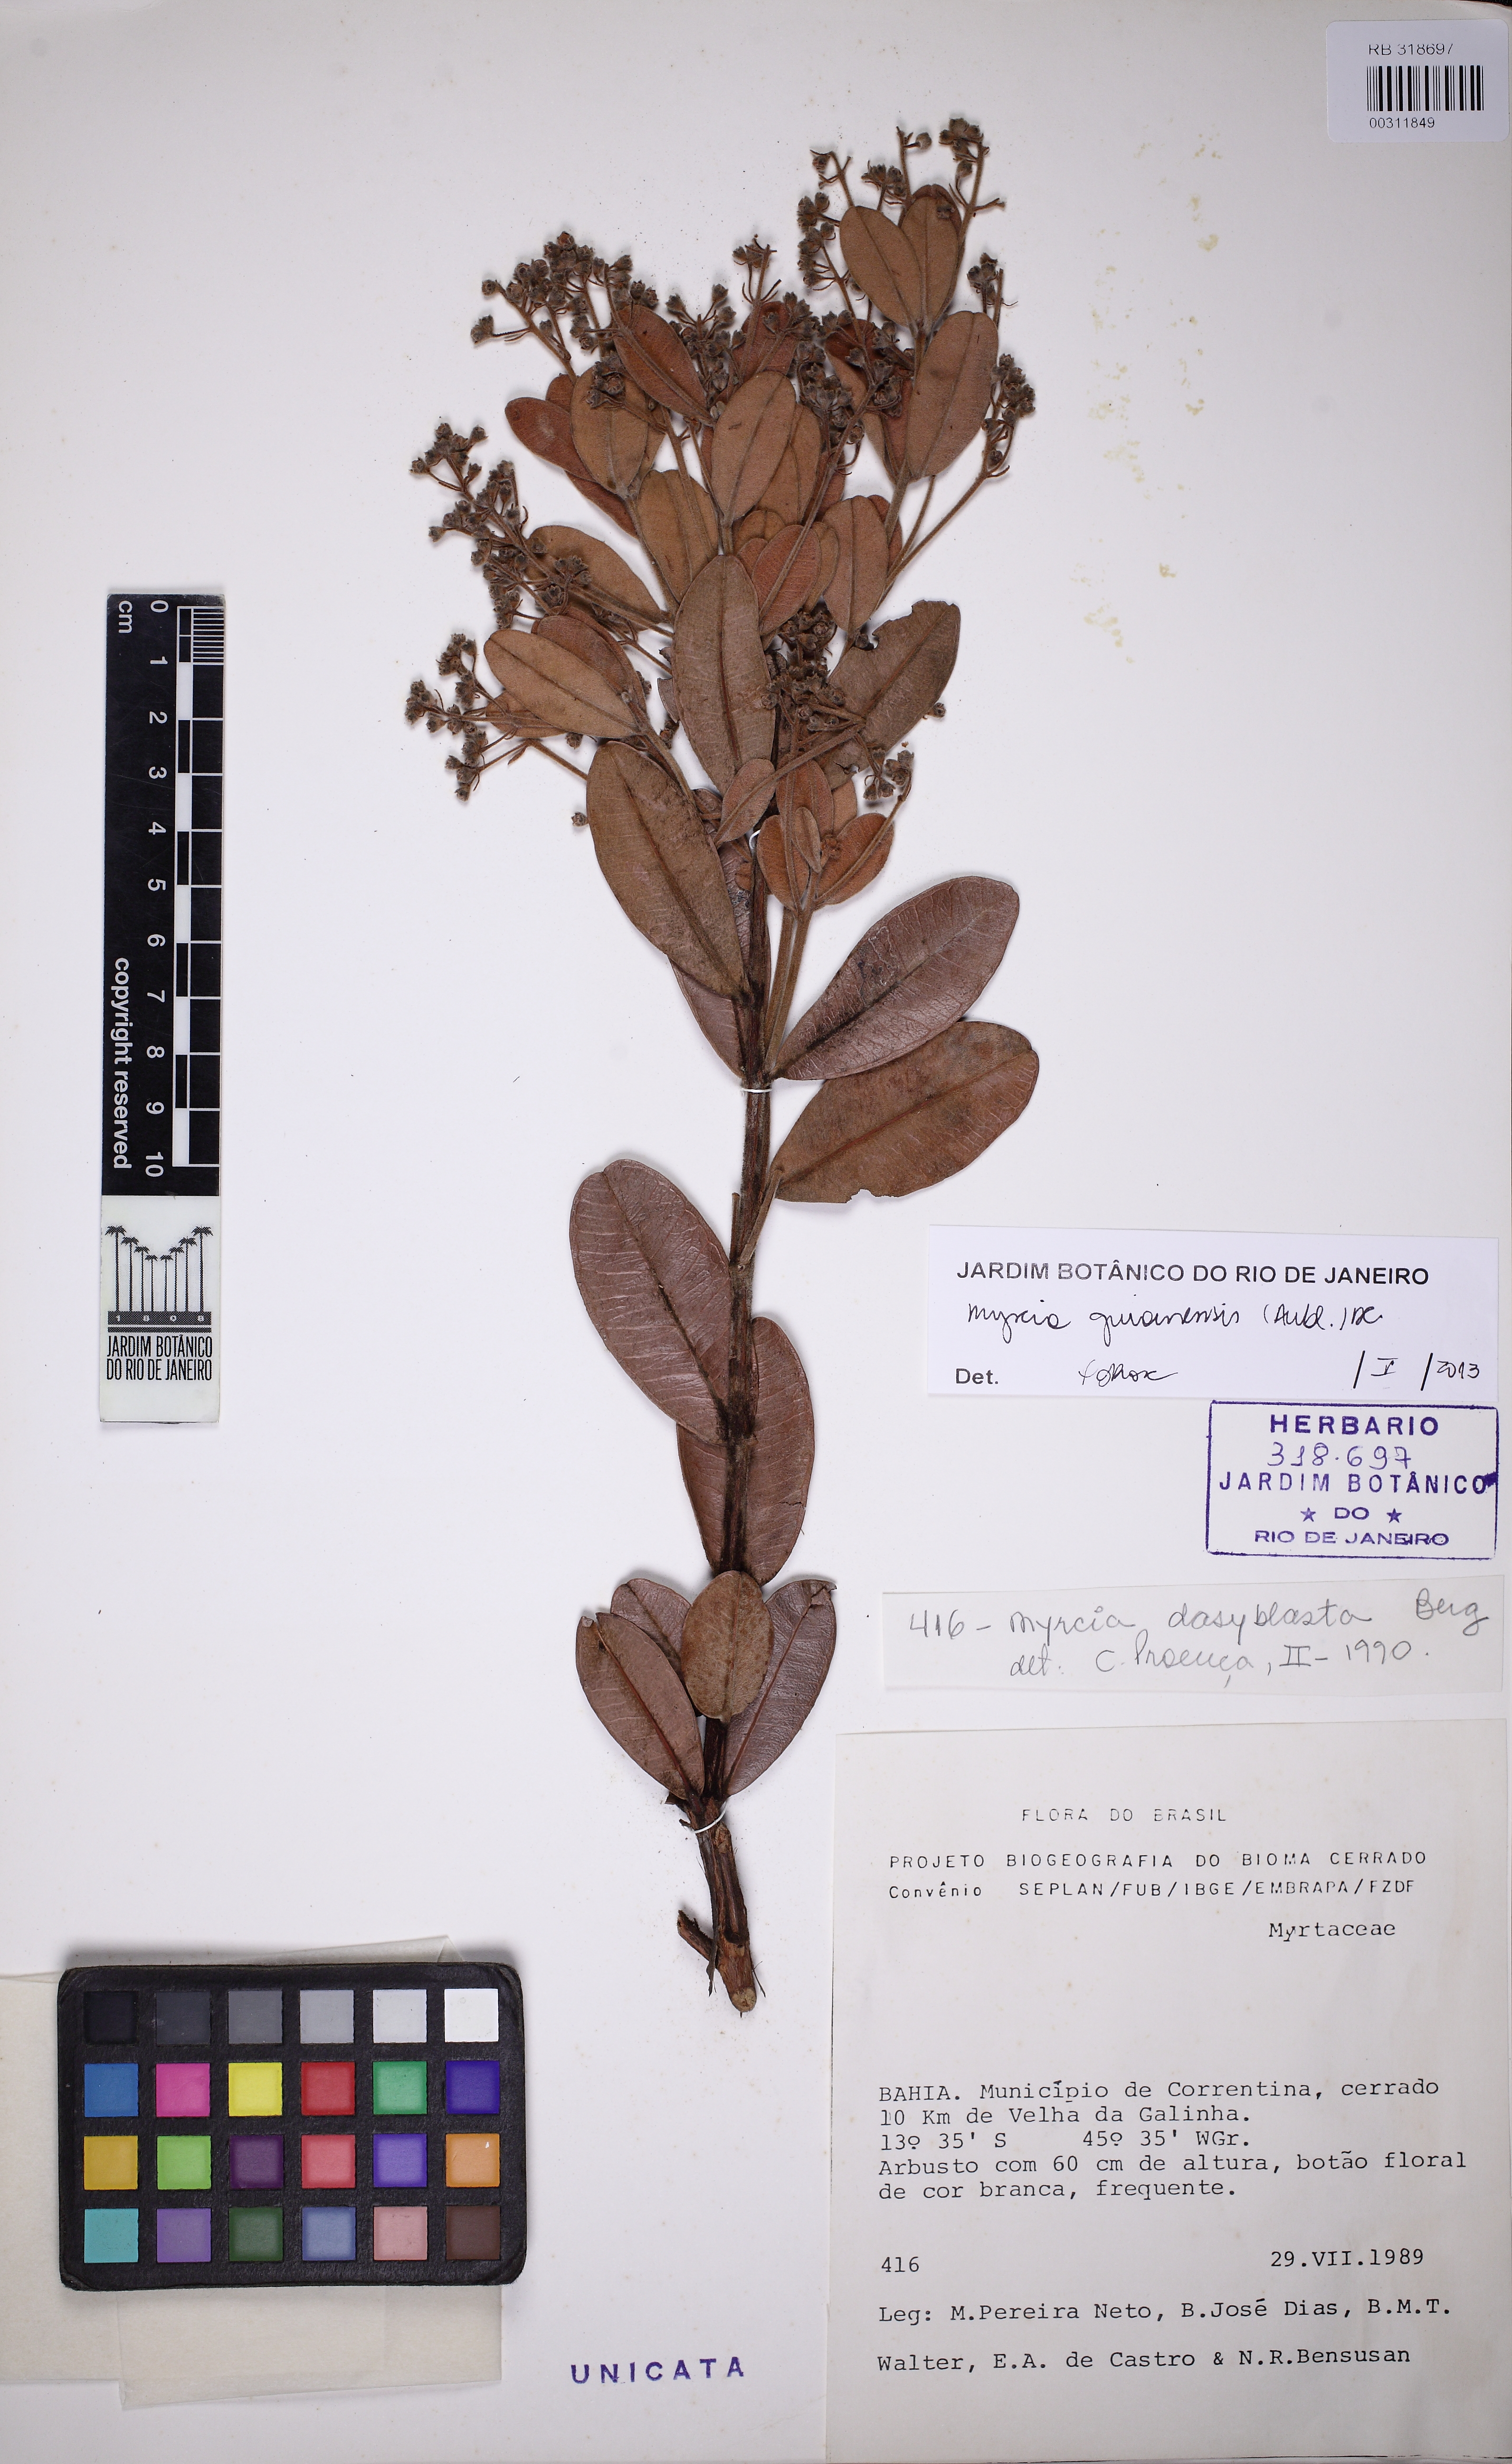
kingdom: Plantae
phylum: Tracheophyta
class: Magnoliopsida
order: Myrtales
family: Myrtaceae
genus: Myrcia
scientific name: Myrcia guianensis
